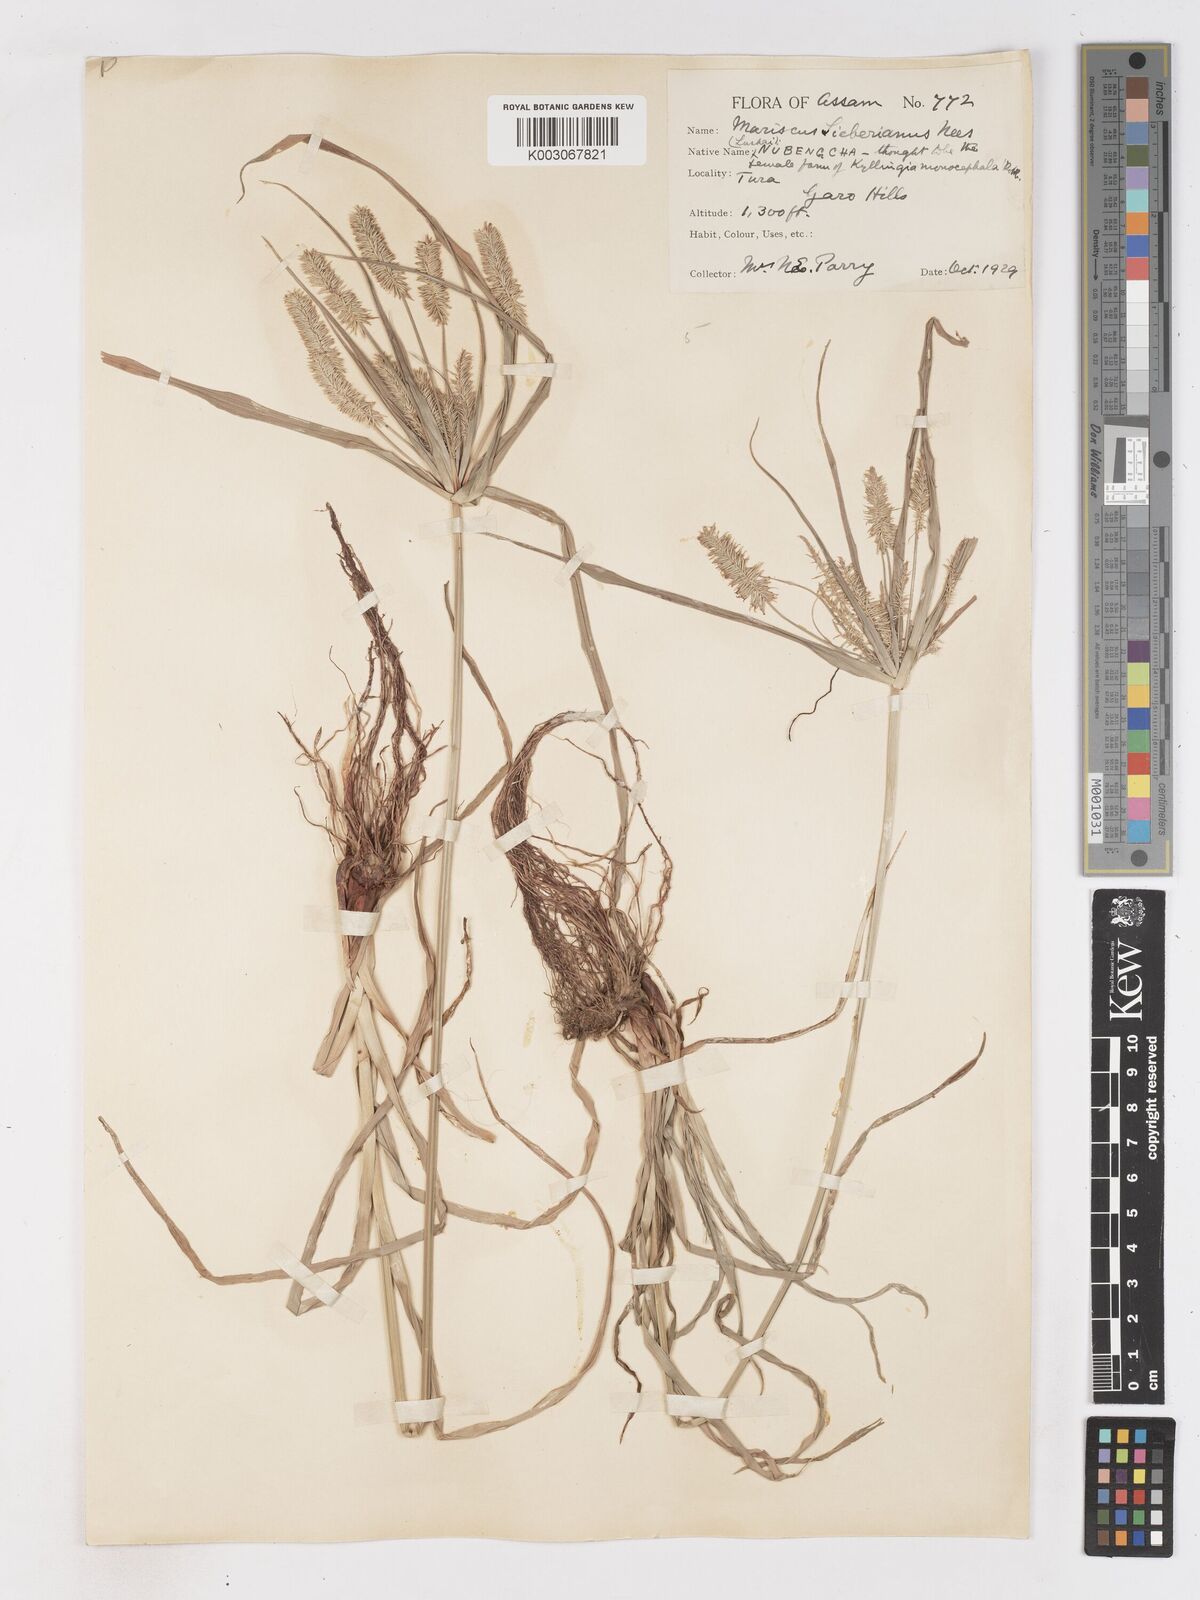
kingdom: Plantae
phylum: Tracheophyta
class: Liliopsida
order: Poales
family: Cyperaceae
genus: Cyperus
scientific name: Cyperus cyperoides
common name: Pacific island flat sedge
